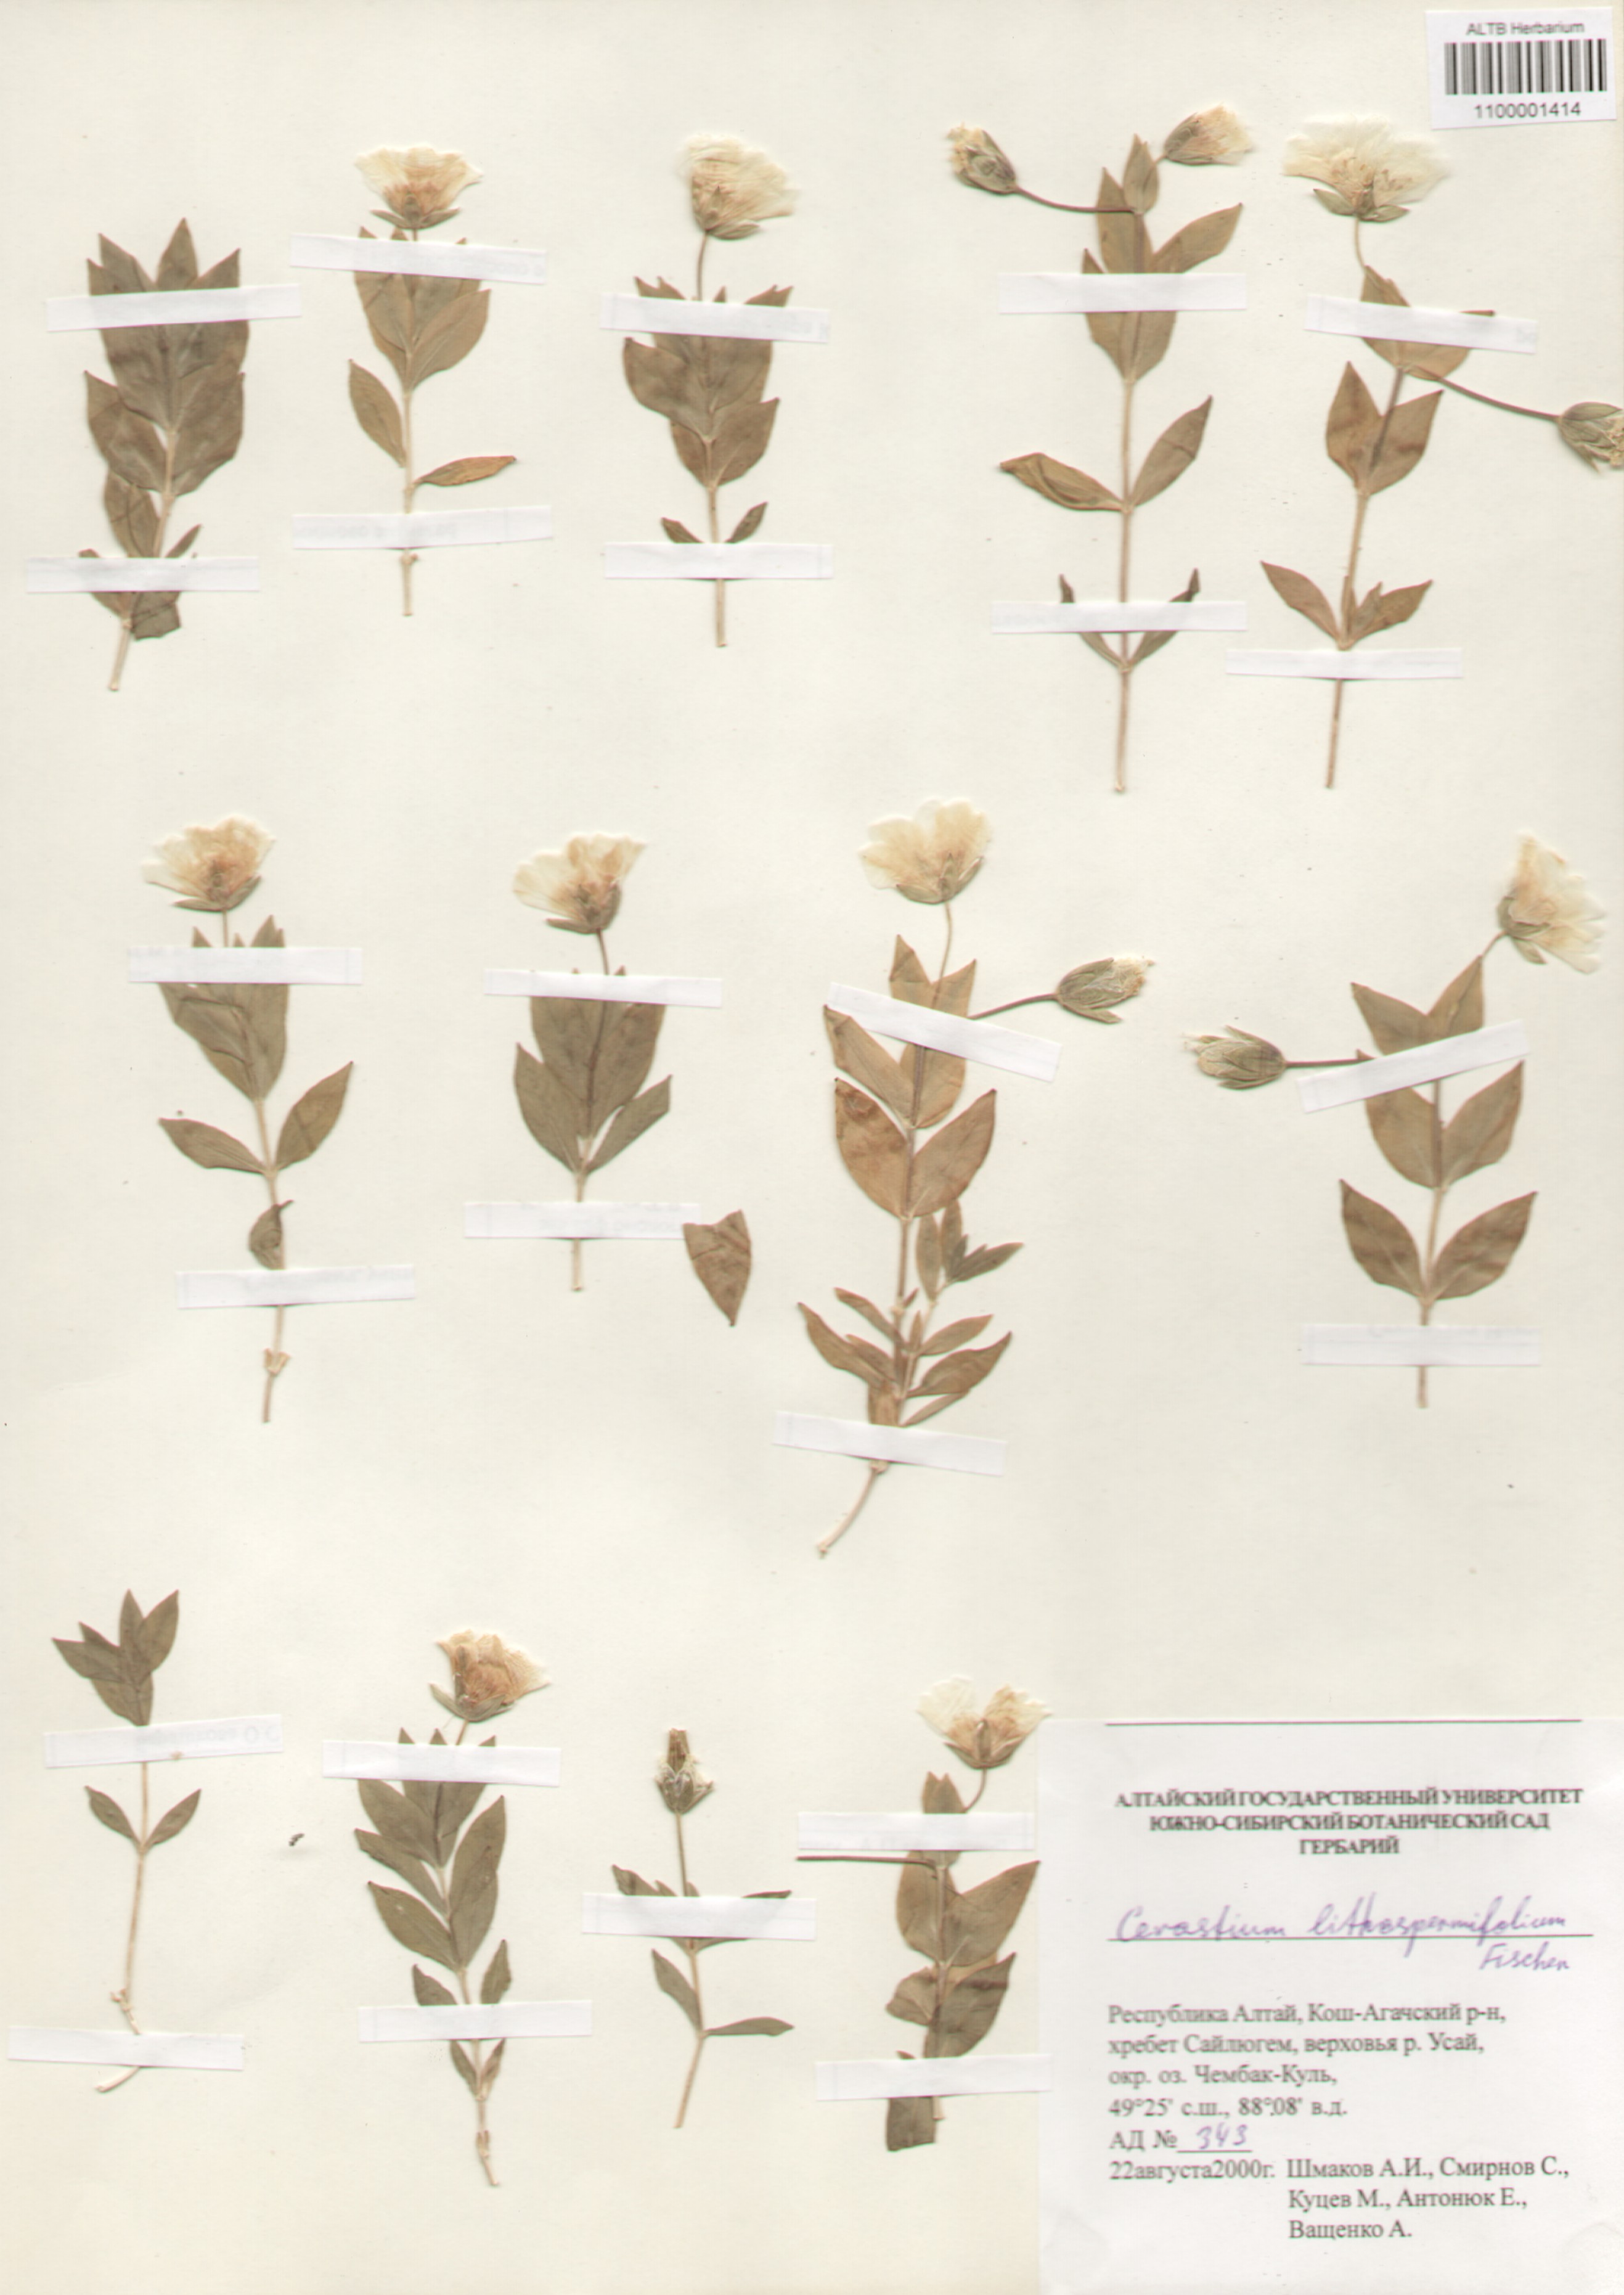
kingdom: Plantae
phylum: Tracheophyta
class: Magnoliopsida
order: Caryophyllales
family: Caryophyllaceae
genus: Cerastium
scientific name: Cerastium lithospermifolium
